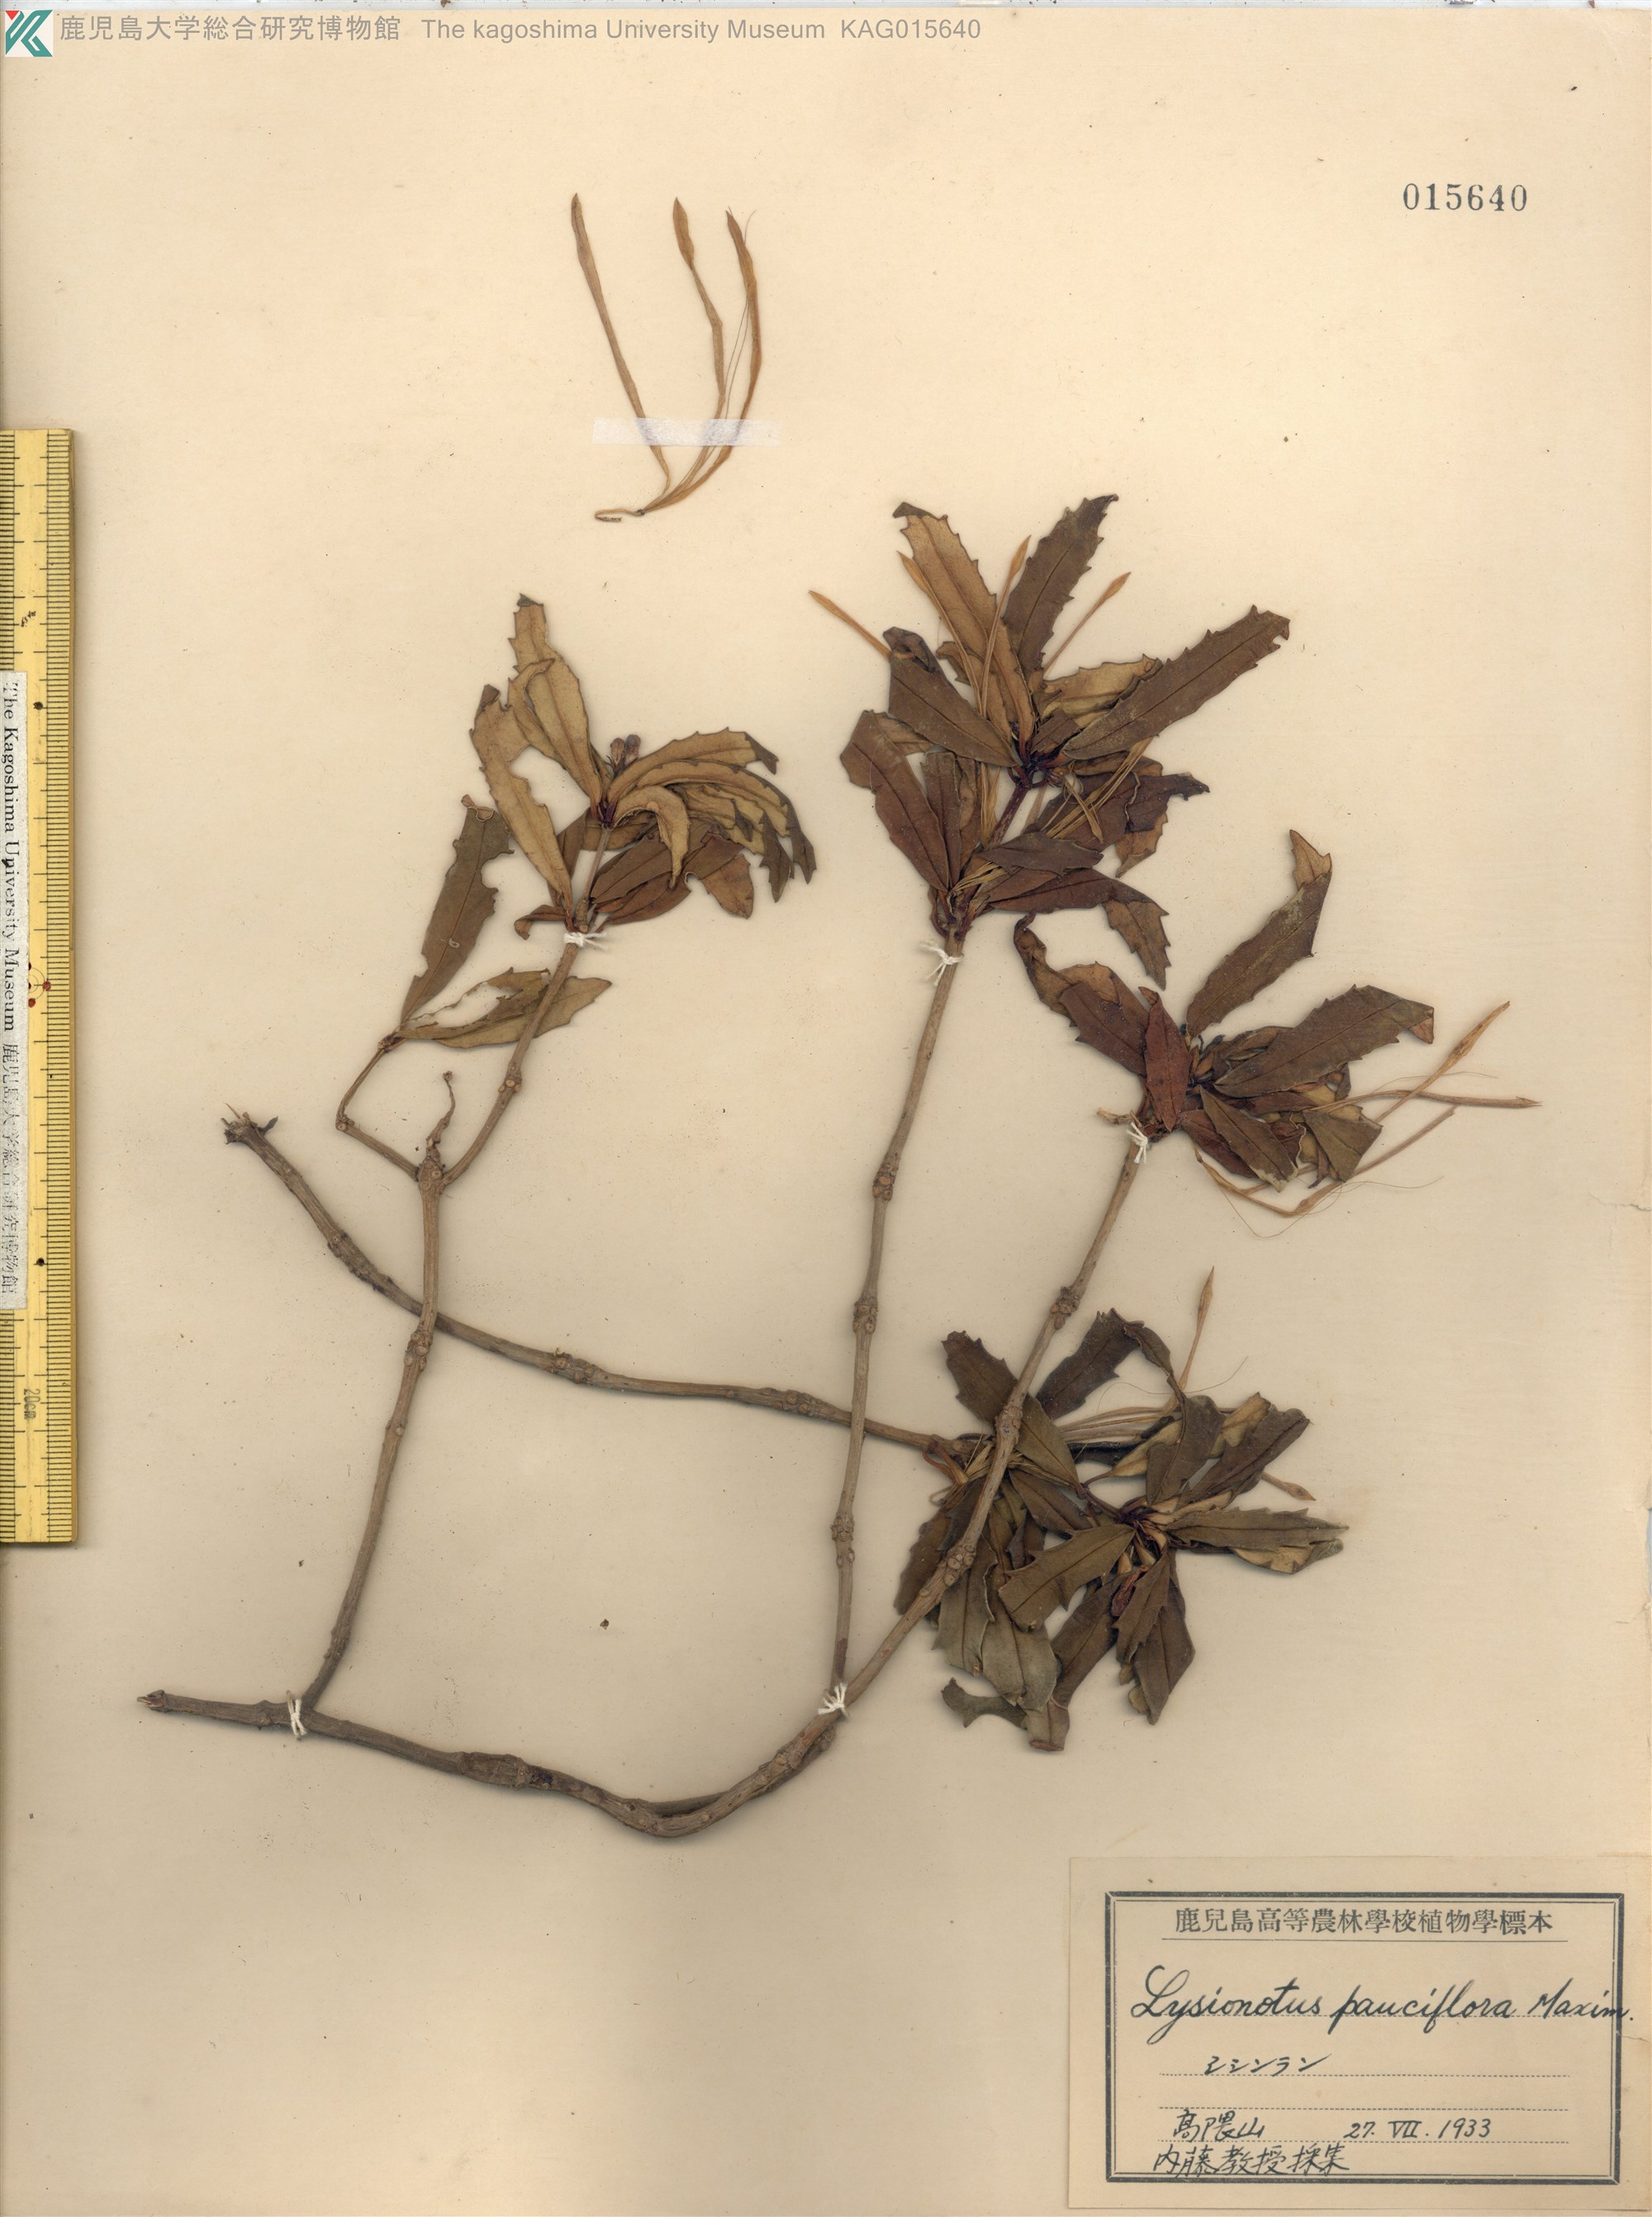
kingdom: Plantae
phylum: Tracheophyta
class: Magnoliopsida
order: Lamiales
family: Gesneriaceae
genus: Lysionotus
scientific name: Lysionotus pauciflorus
